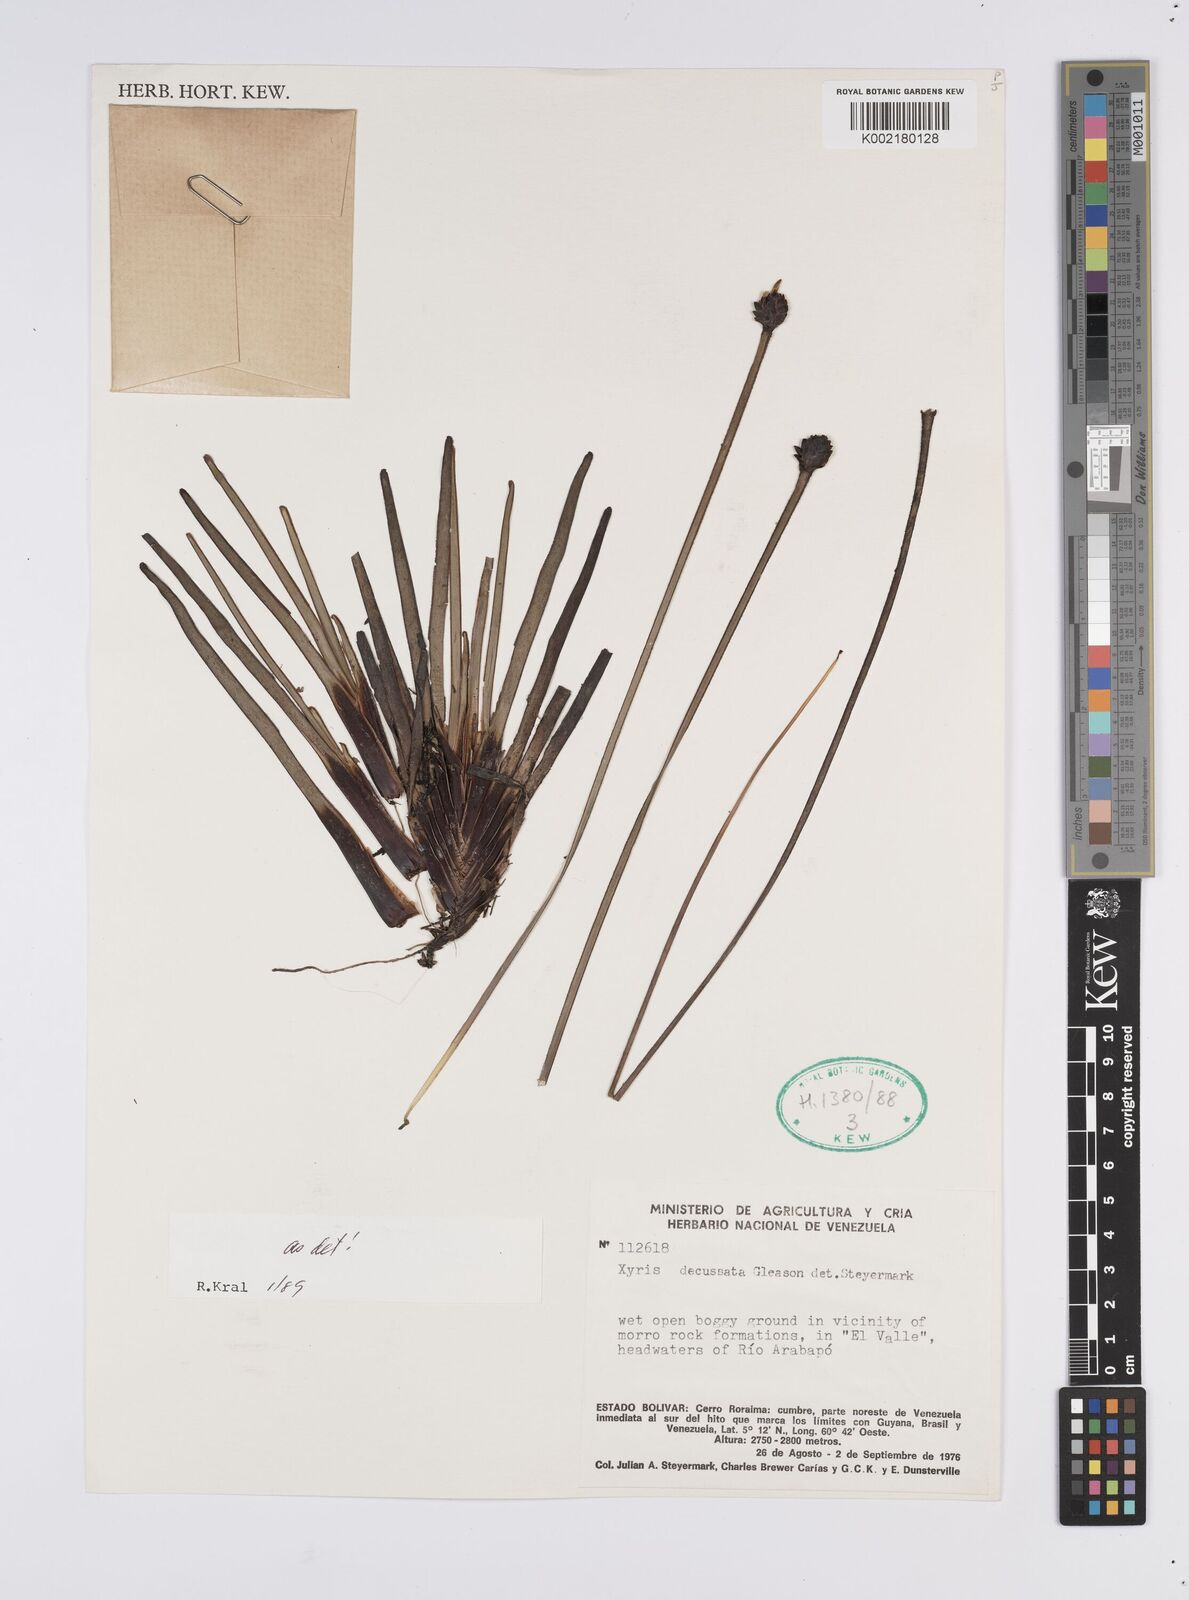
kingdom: Plantae
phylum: Tracheophyta
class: Liliopsida
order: Poales
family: Xyridaceae
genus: Xyris
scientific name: Xyris decussata
